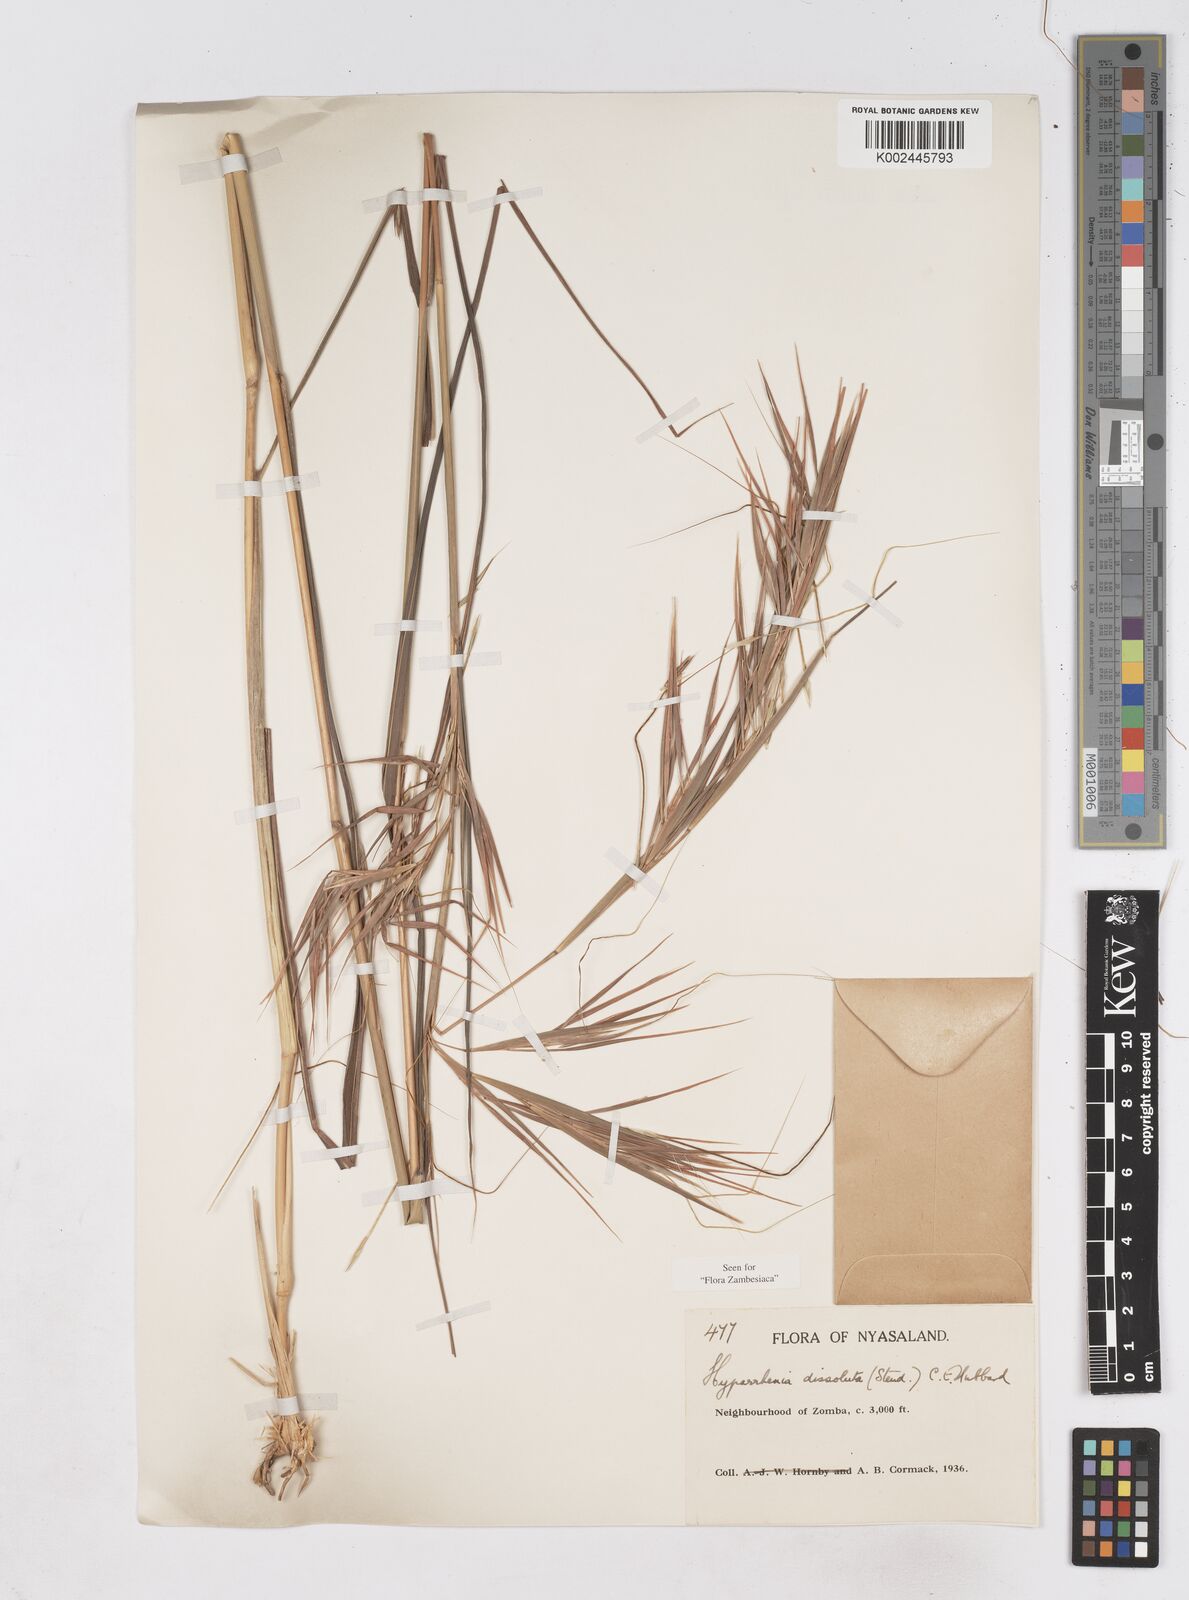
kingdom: Plantae
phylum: Tracheophyta
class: Liliopsida
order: Poales
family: Poaceae
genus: Hyperthelia
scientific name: Hyperthelia dissoluta
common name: Yellow thatching grass
